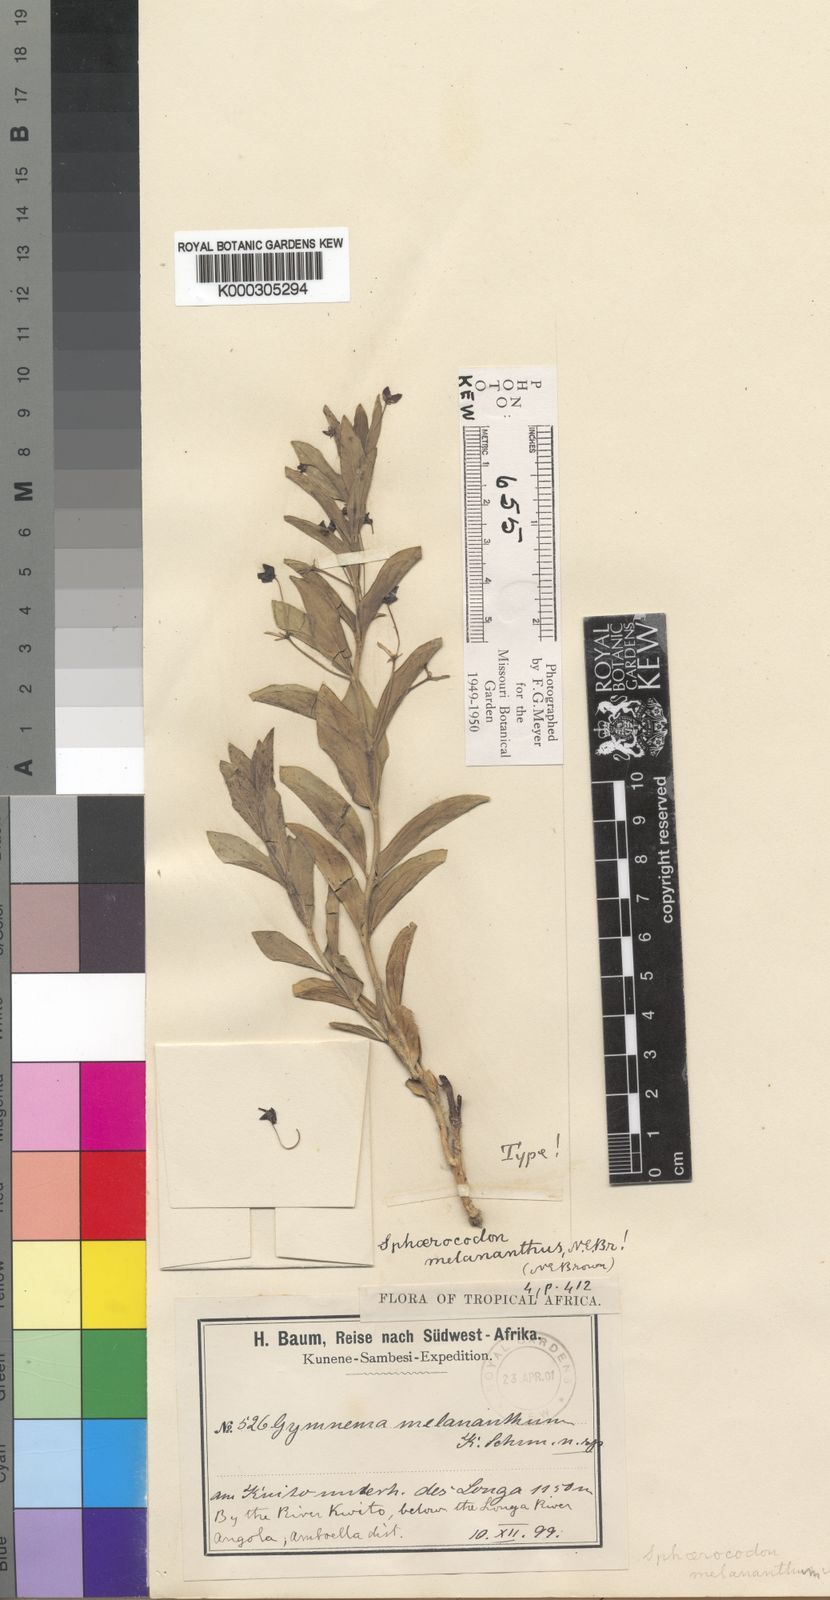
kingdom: Plantae
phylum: Tracheophyta
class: Magnoliopsida
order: Gentianales
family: Apocynaceae
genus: Vincetoxicum
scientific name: Vincetoxicum
